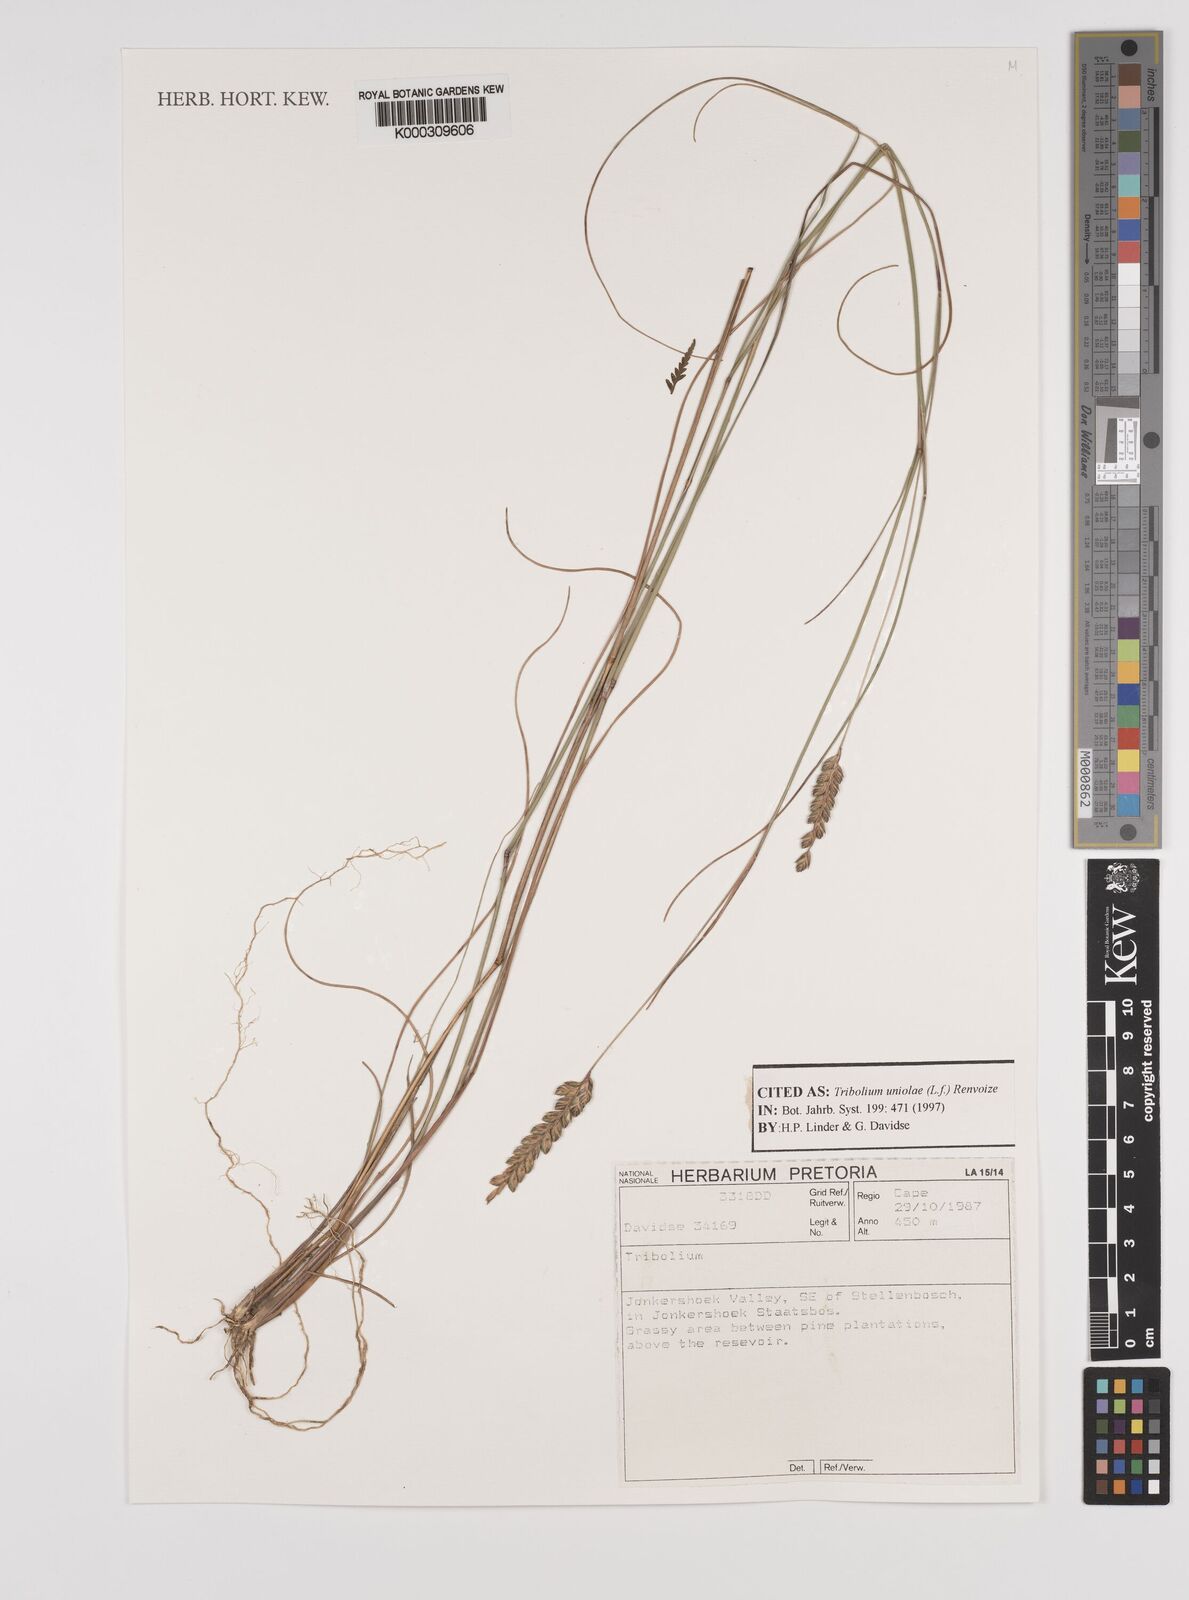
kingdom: Plantae
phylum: Tracheophyta
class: Liliopsida
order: Poales
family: Poaceae
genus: Tribolium
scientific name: Tribolium uniolae
